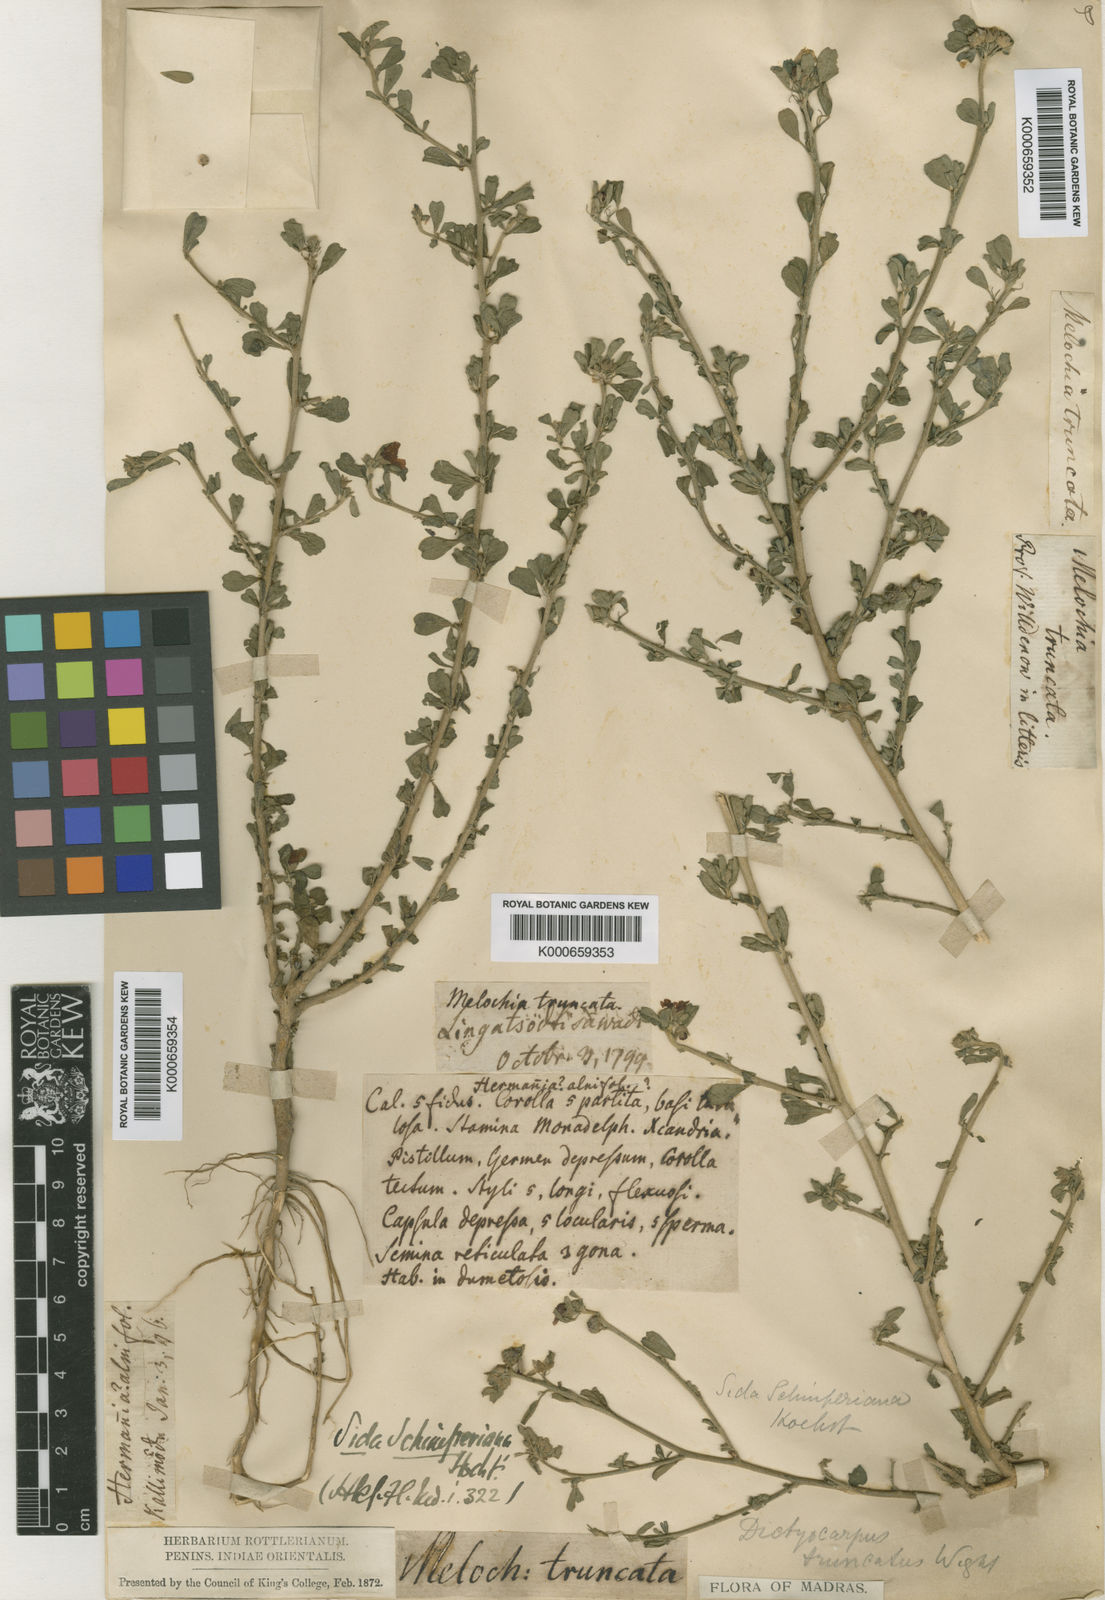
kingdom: Plantae
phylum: Tracheophyta
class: Magnoliopsida
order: Malvales
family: Malvaceae
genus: Sida
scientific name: Sida schimperiana
